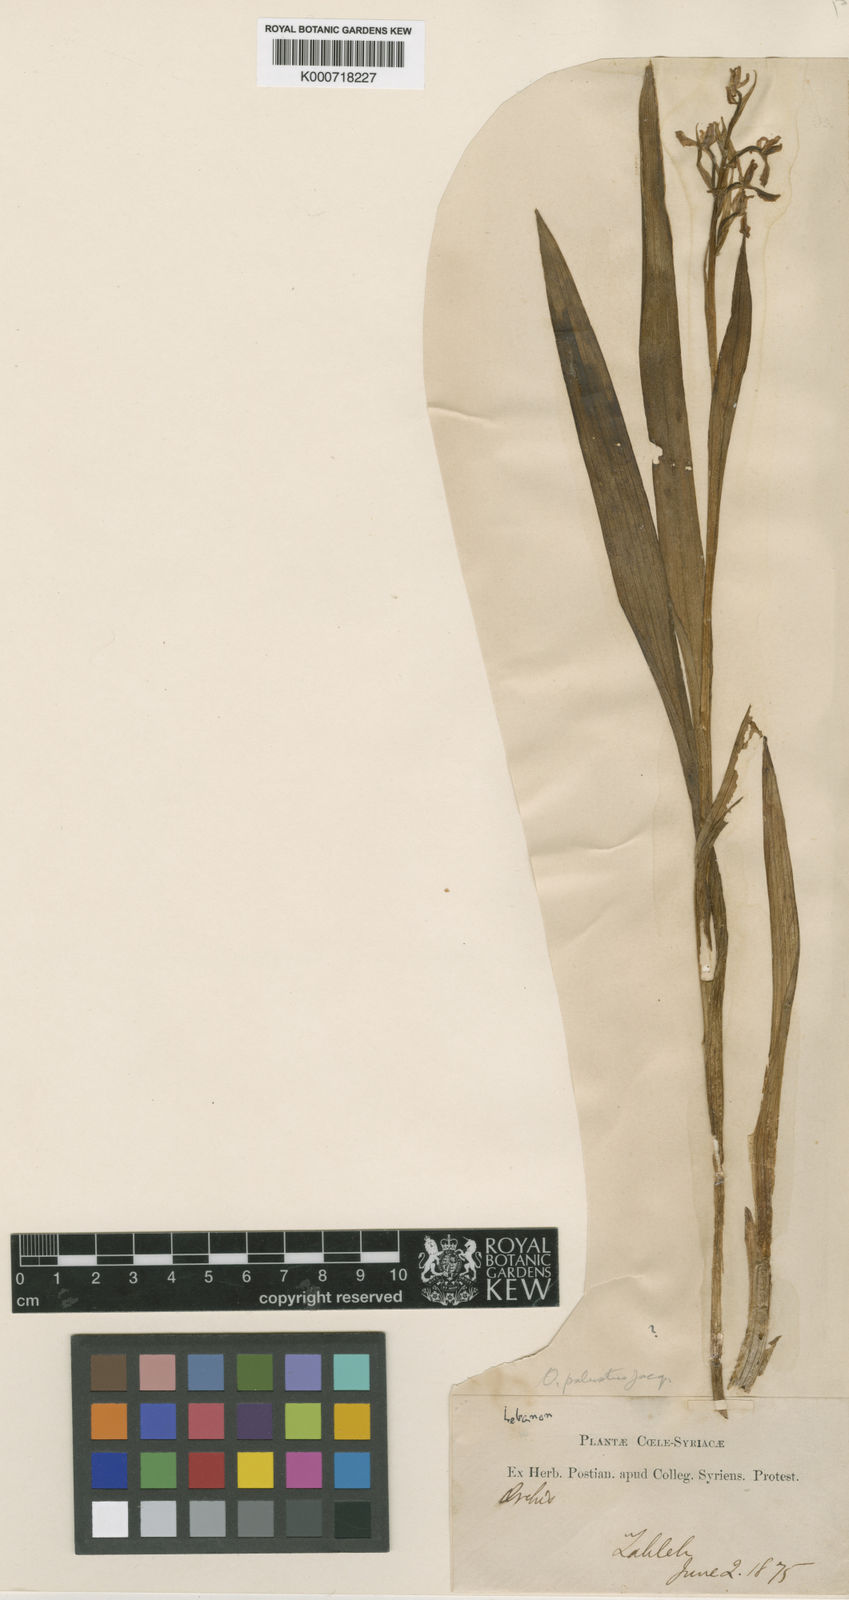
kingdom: Plantae
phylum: Tracheophyta
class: Liliopsida
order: Asparagales
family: Orchidaceae
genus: Anacamptis
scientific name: Anacamptis palustris
